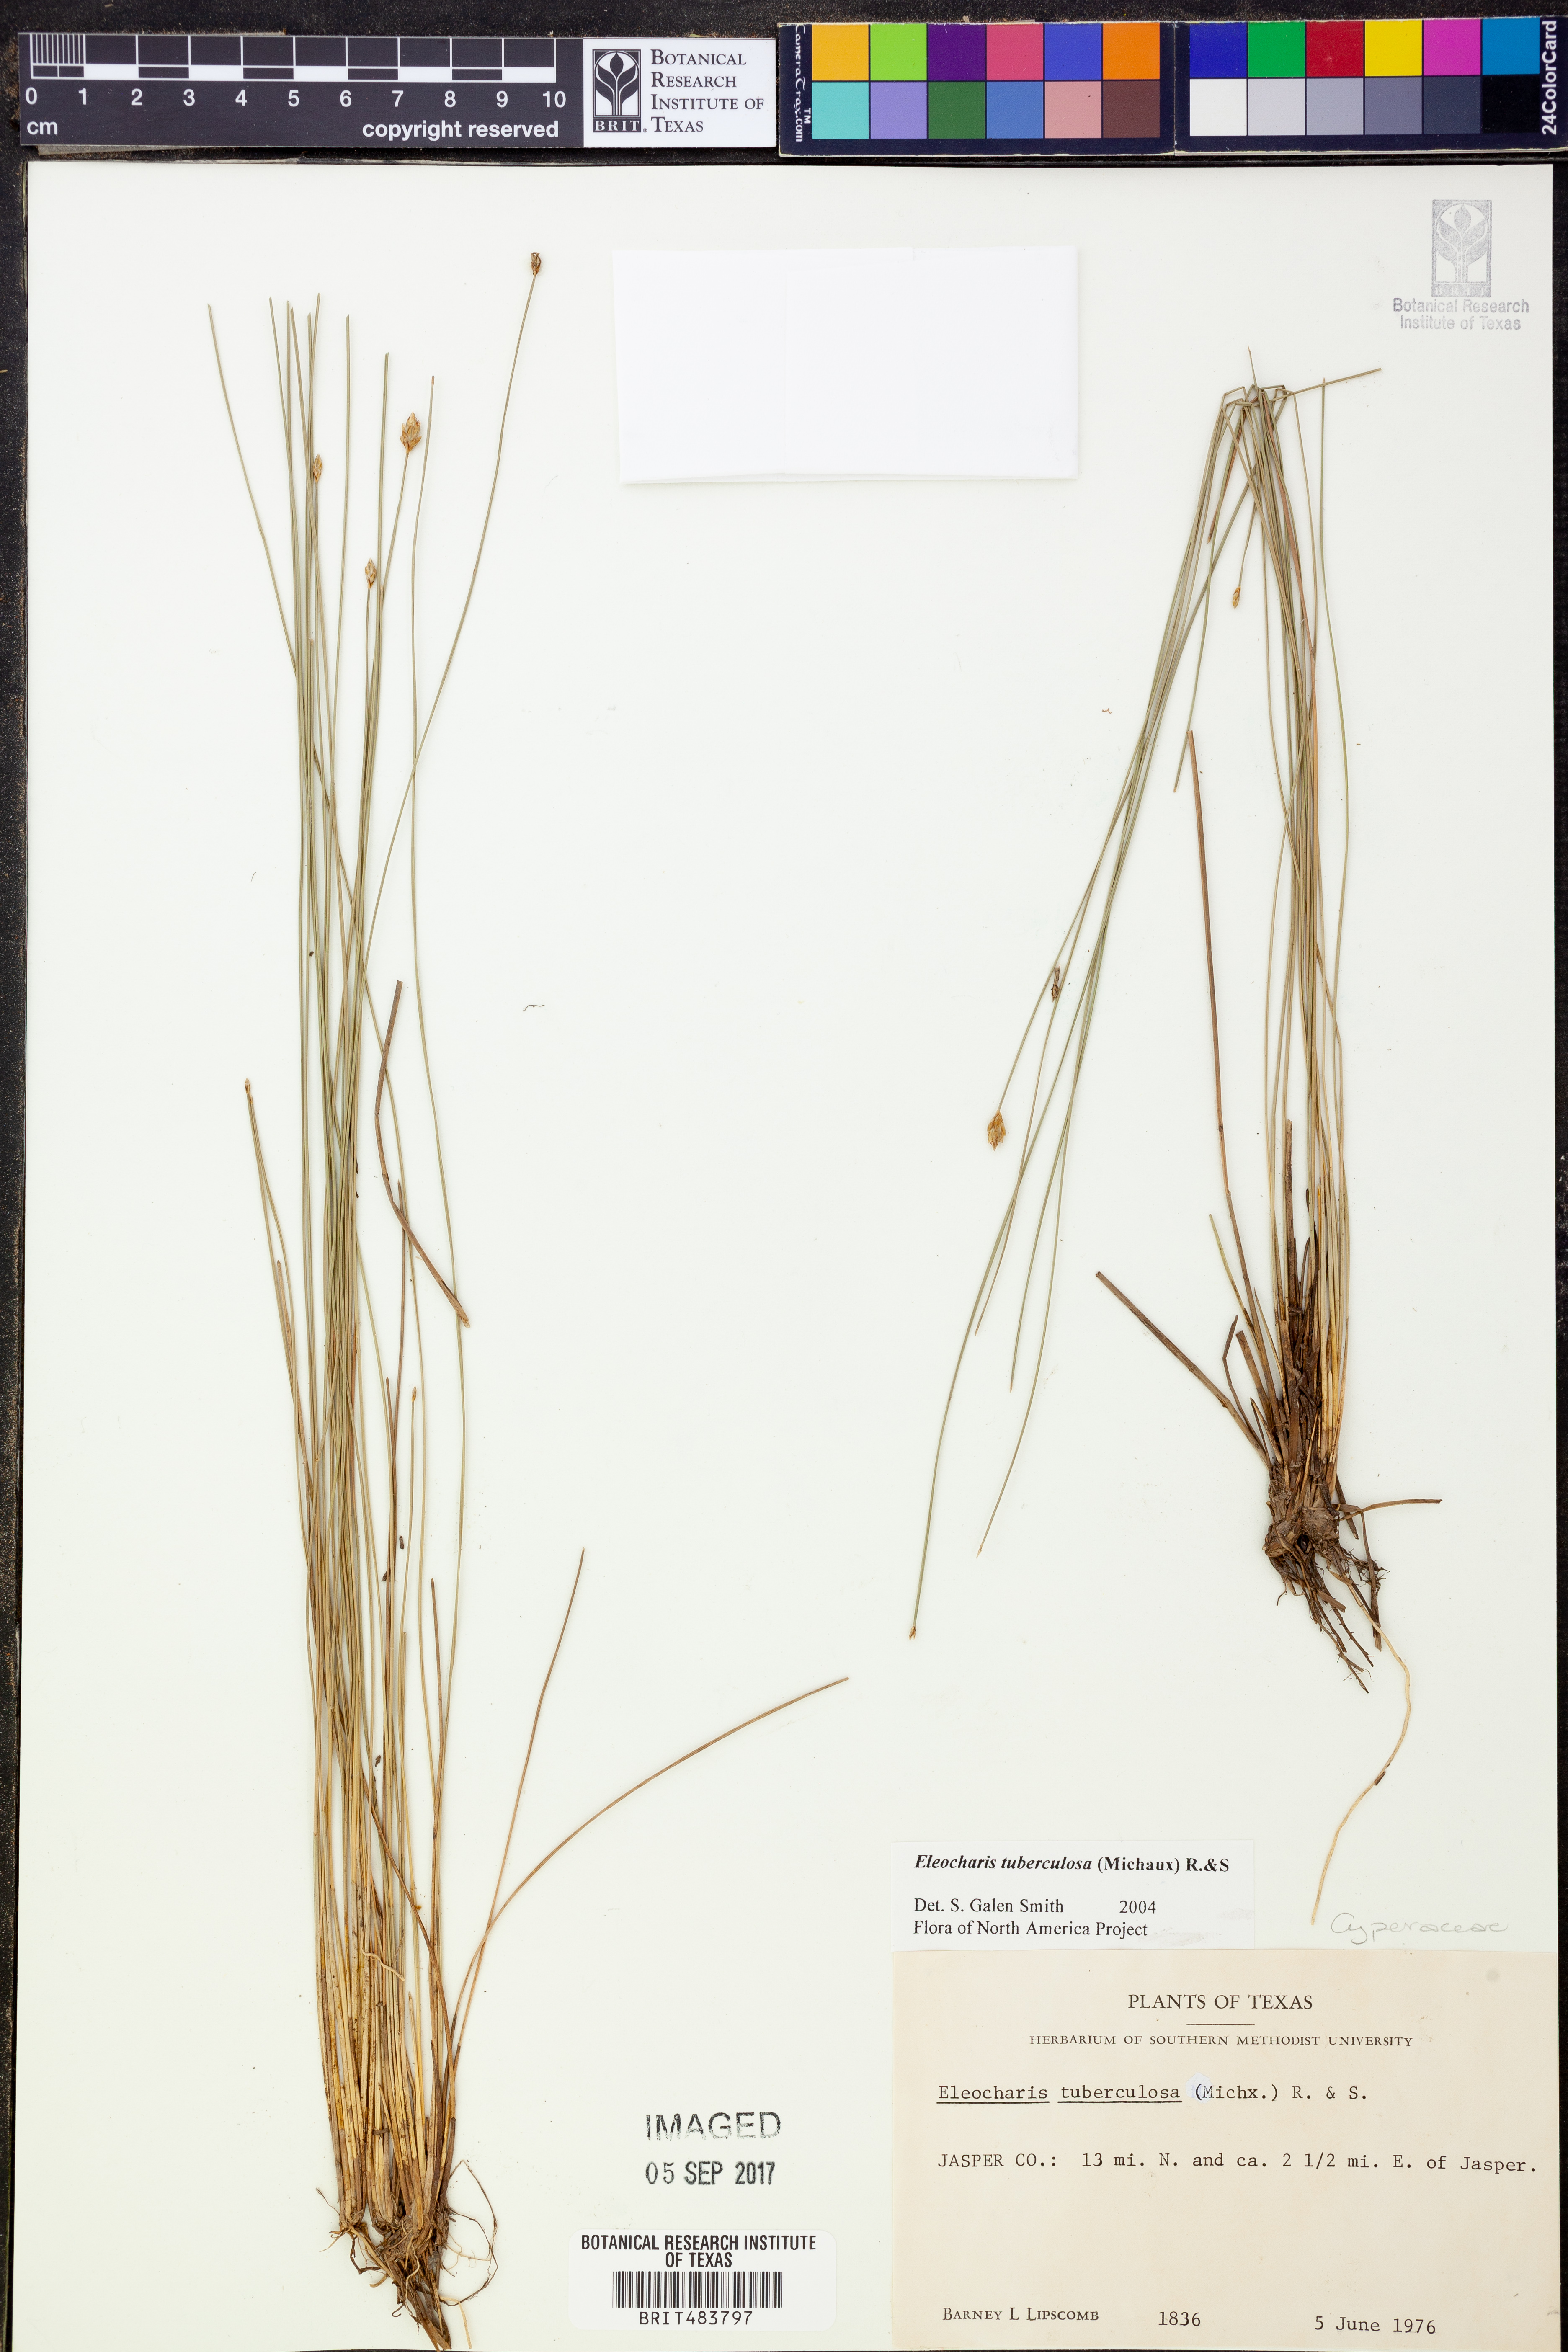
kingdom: Plantae
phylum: Tracheophyta
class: Liliopsida
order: Poales
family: Cyperaceae
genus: Eleocharis
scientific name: Eleocharis tuberculosa
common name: Cone-cup spikerush
